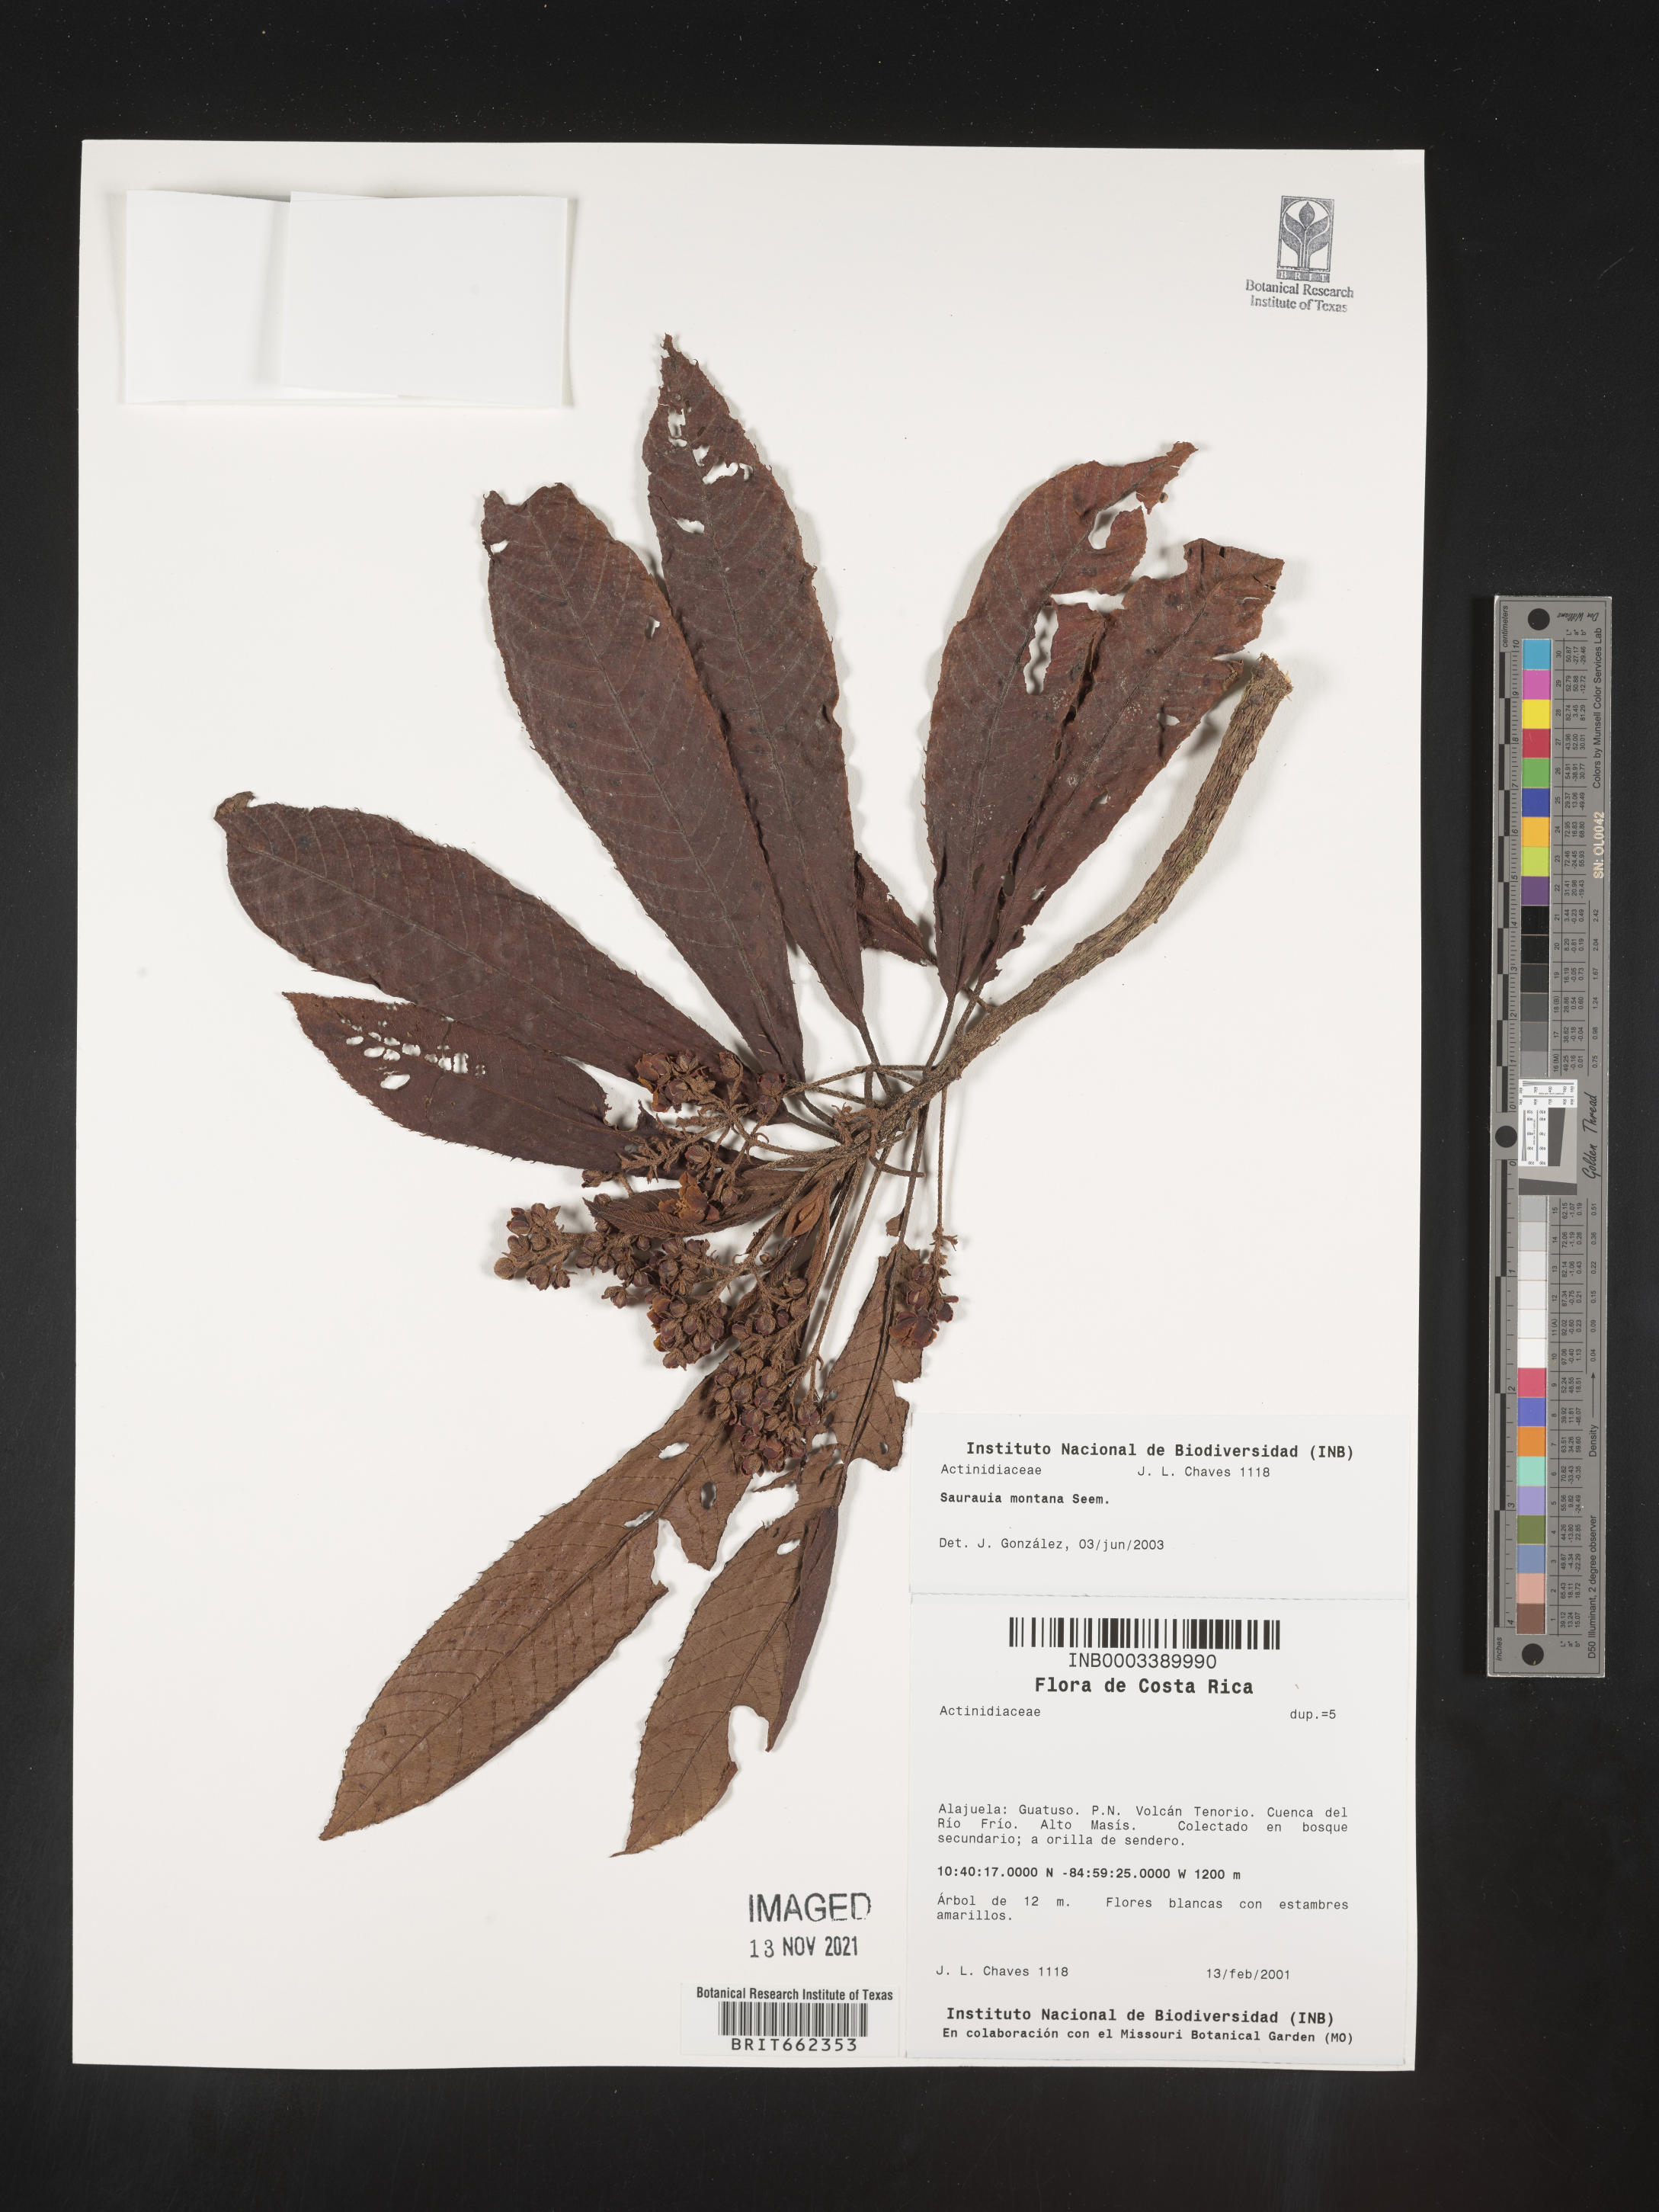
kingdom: Plantae
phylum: Tracheophyta
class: Magnoliopsida
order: Ericales
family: Actinidiaceae
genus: Saurauia
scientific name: Saurauia
